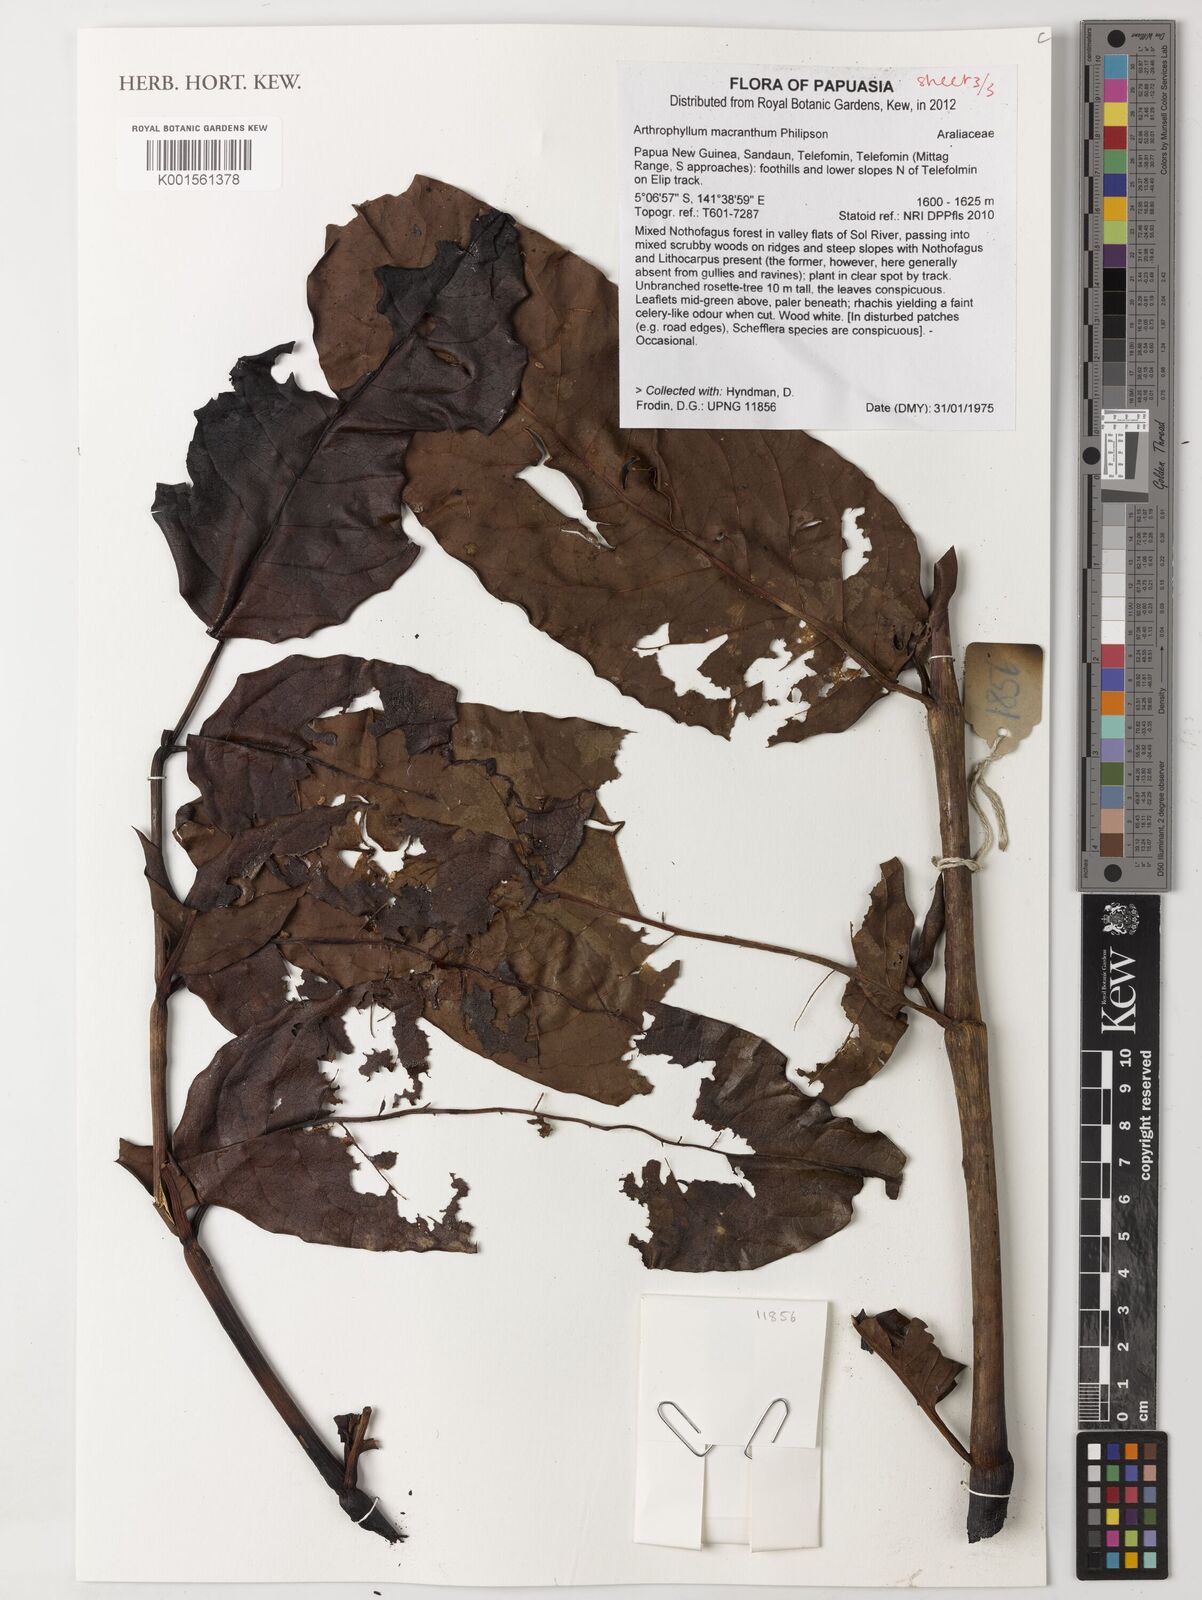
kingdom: Plantae
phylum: Tracheophyta
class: Magnoliopsida
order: Apiales
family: Araliaceae
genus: Polyscias
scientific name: Polyscias macranthum
